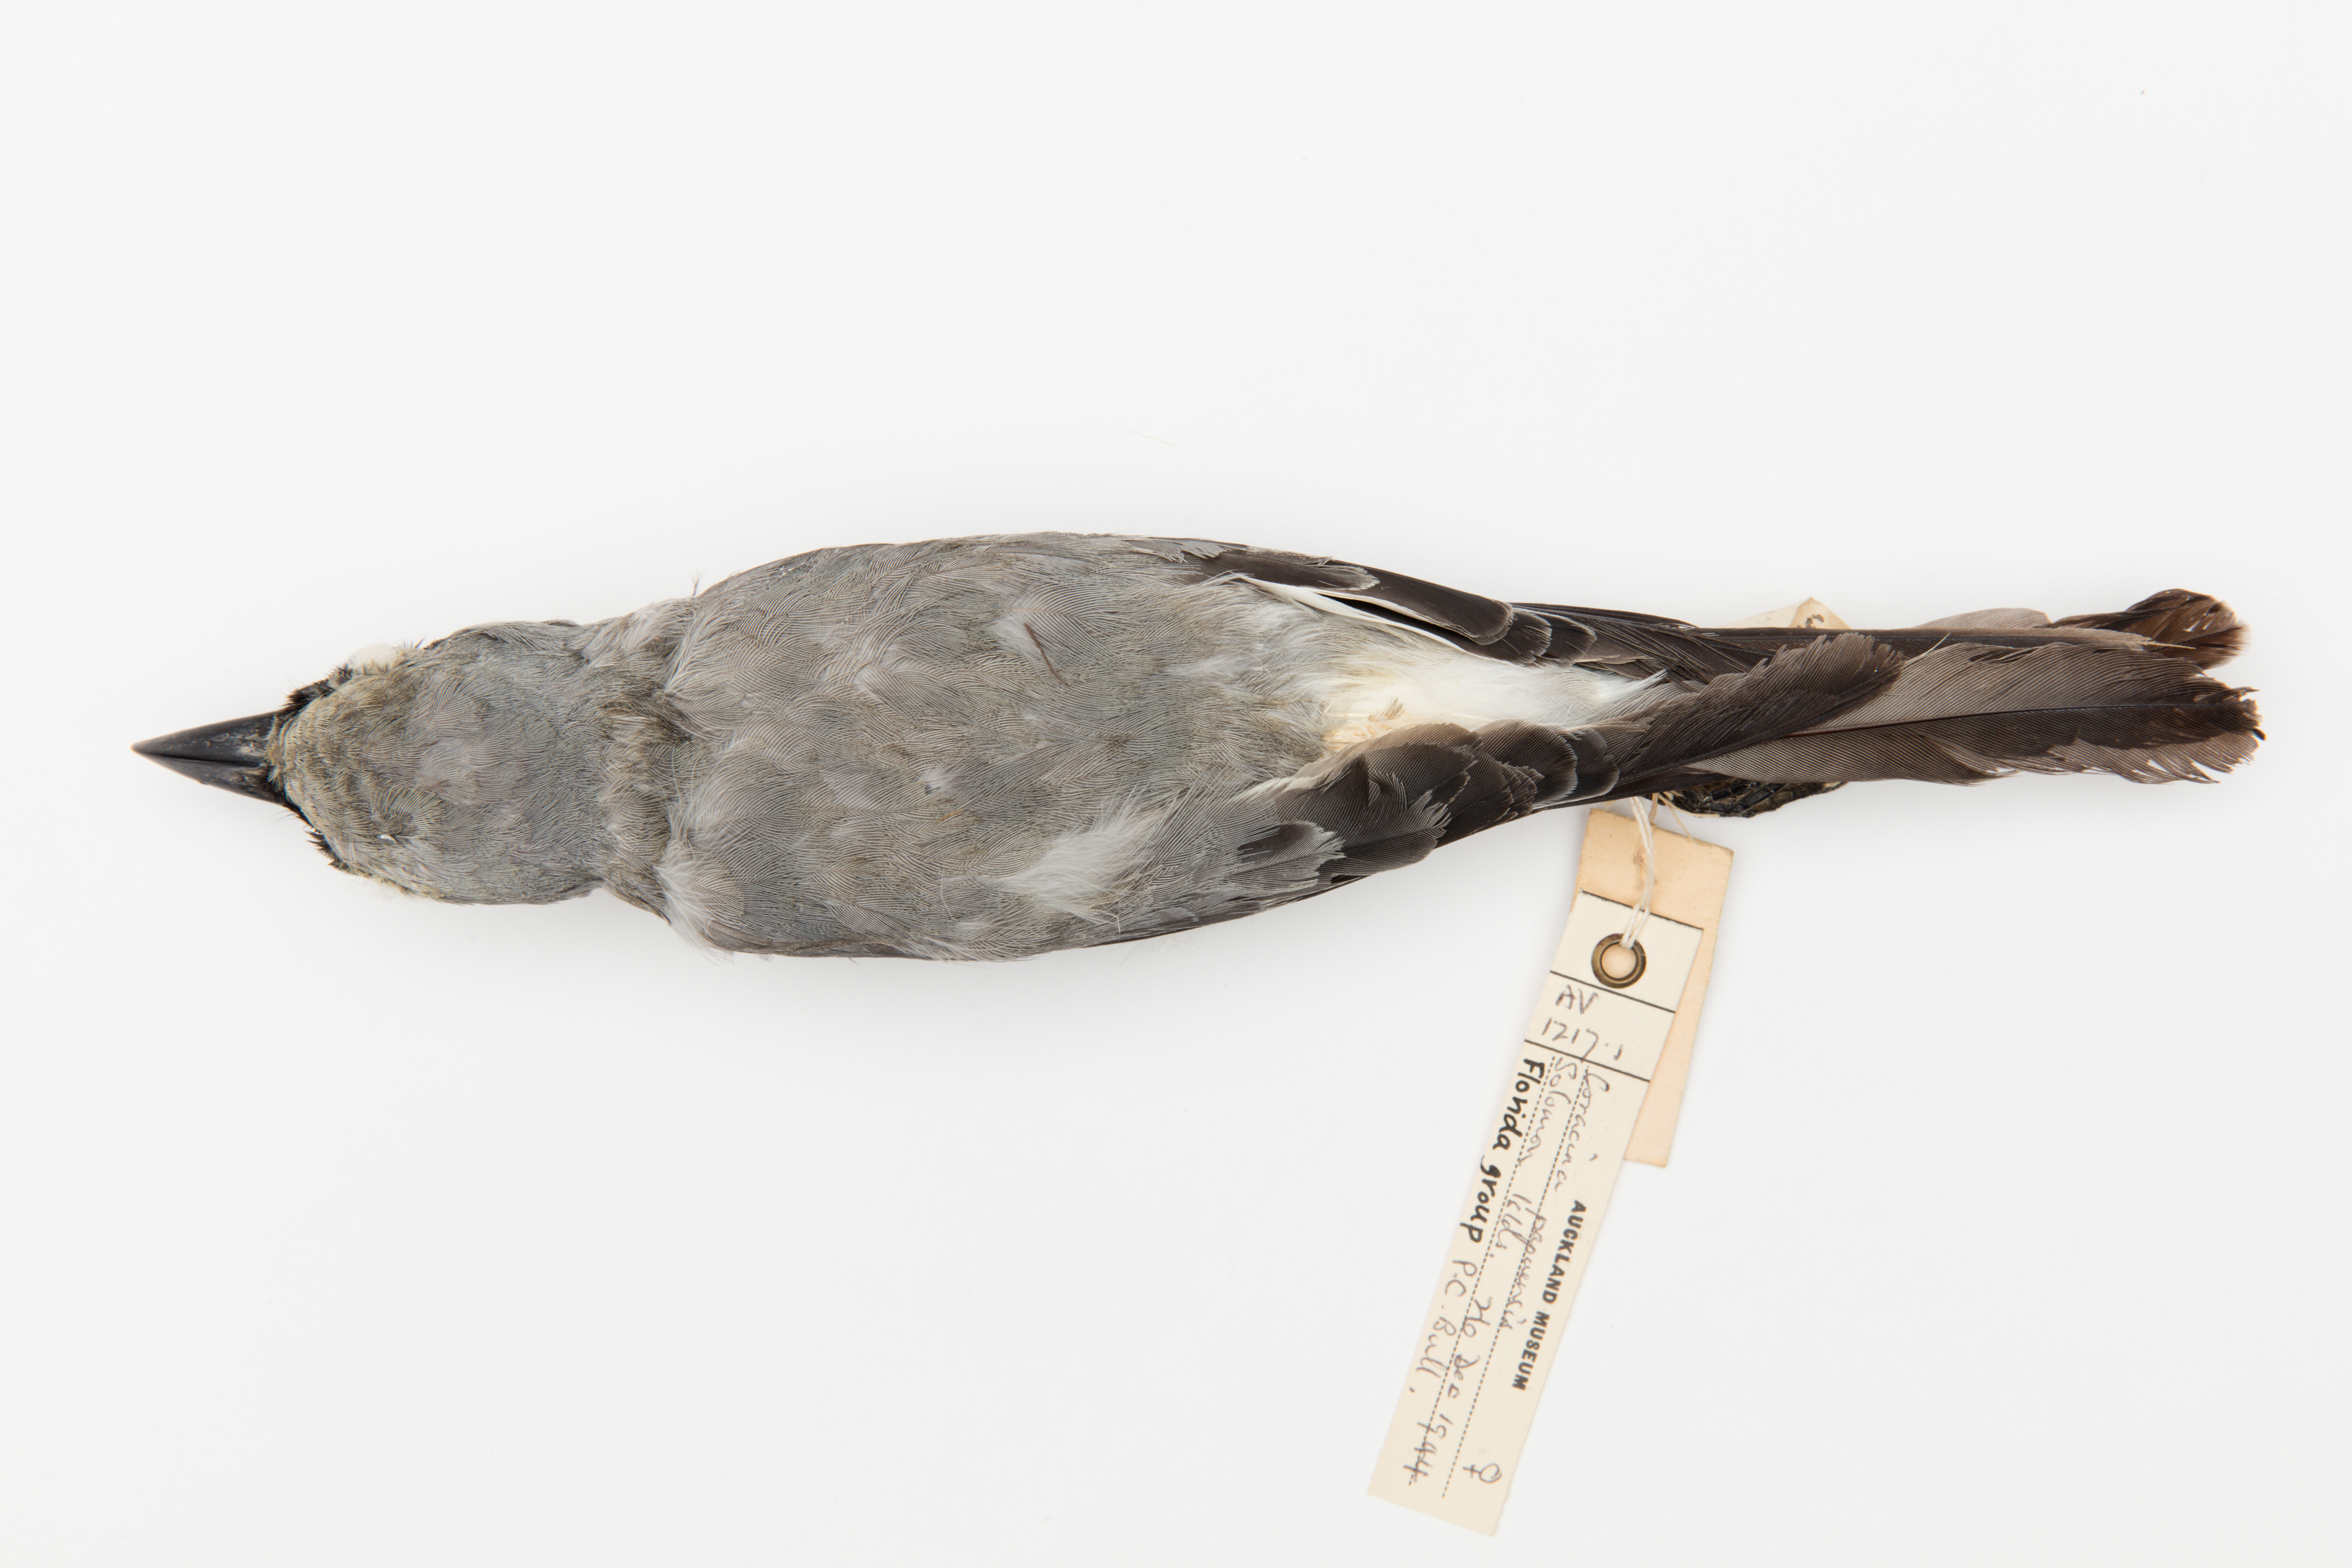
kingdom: Animalia
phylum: Chordata
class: Aves
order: Passeriformes
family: Campephagidae
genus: Coracina
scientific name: Coracina papuensis
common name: White-bellied cuckooshrike
